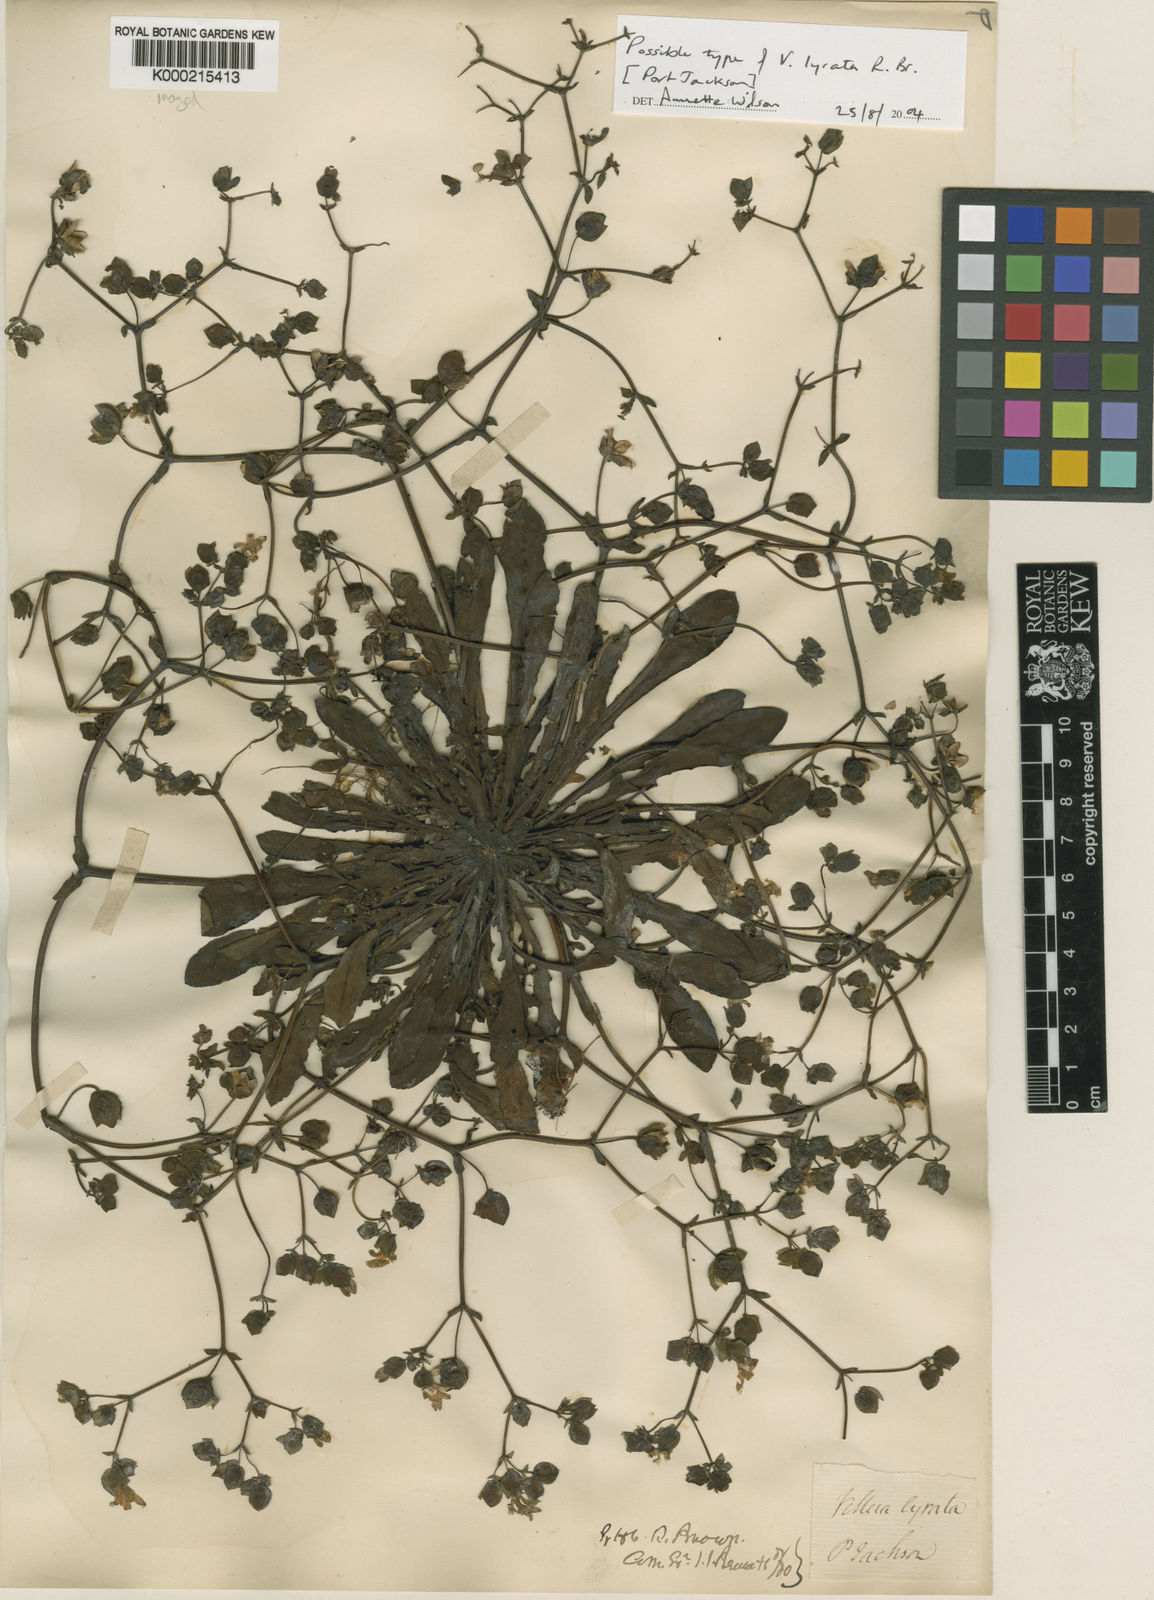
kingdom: Plantae
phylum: Tracheophyta
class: Magnoliopsida
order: Asterales
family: Goodeniaceae
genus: Goodenia
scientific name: Goodenia caroliniana
